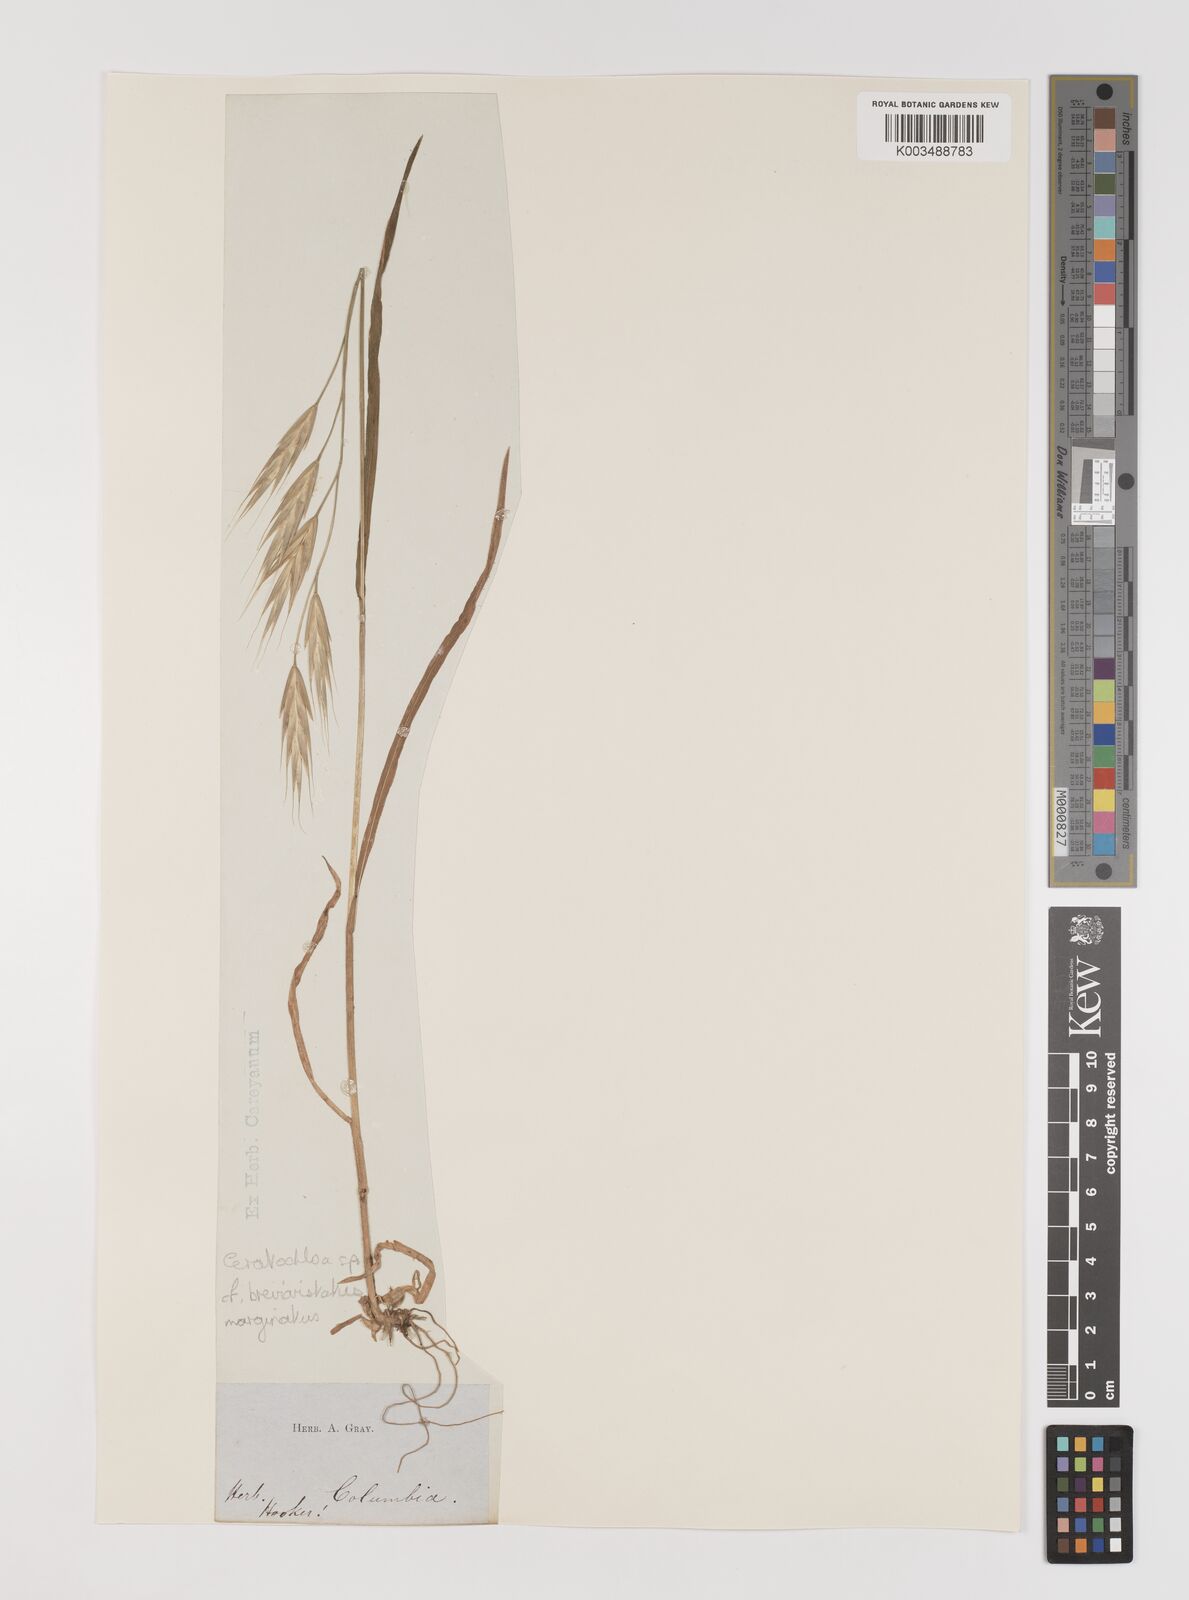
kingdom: Plantae
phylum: Tracheophyta
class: Liliopsida
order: Poales
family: Poaceae
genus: Bromus
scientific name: Bromus
